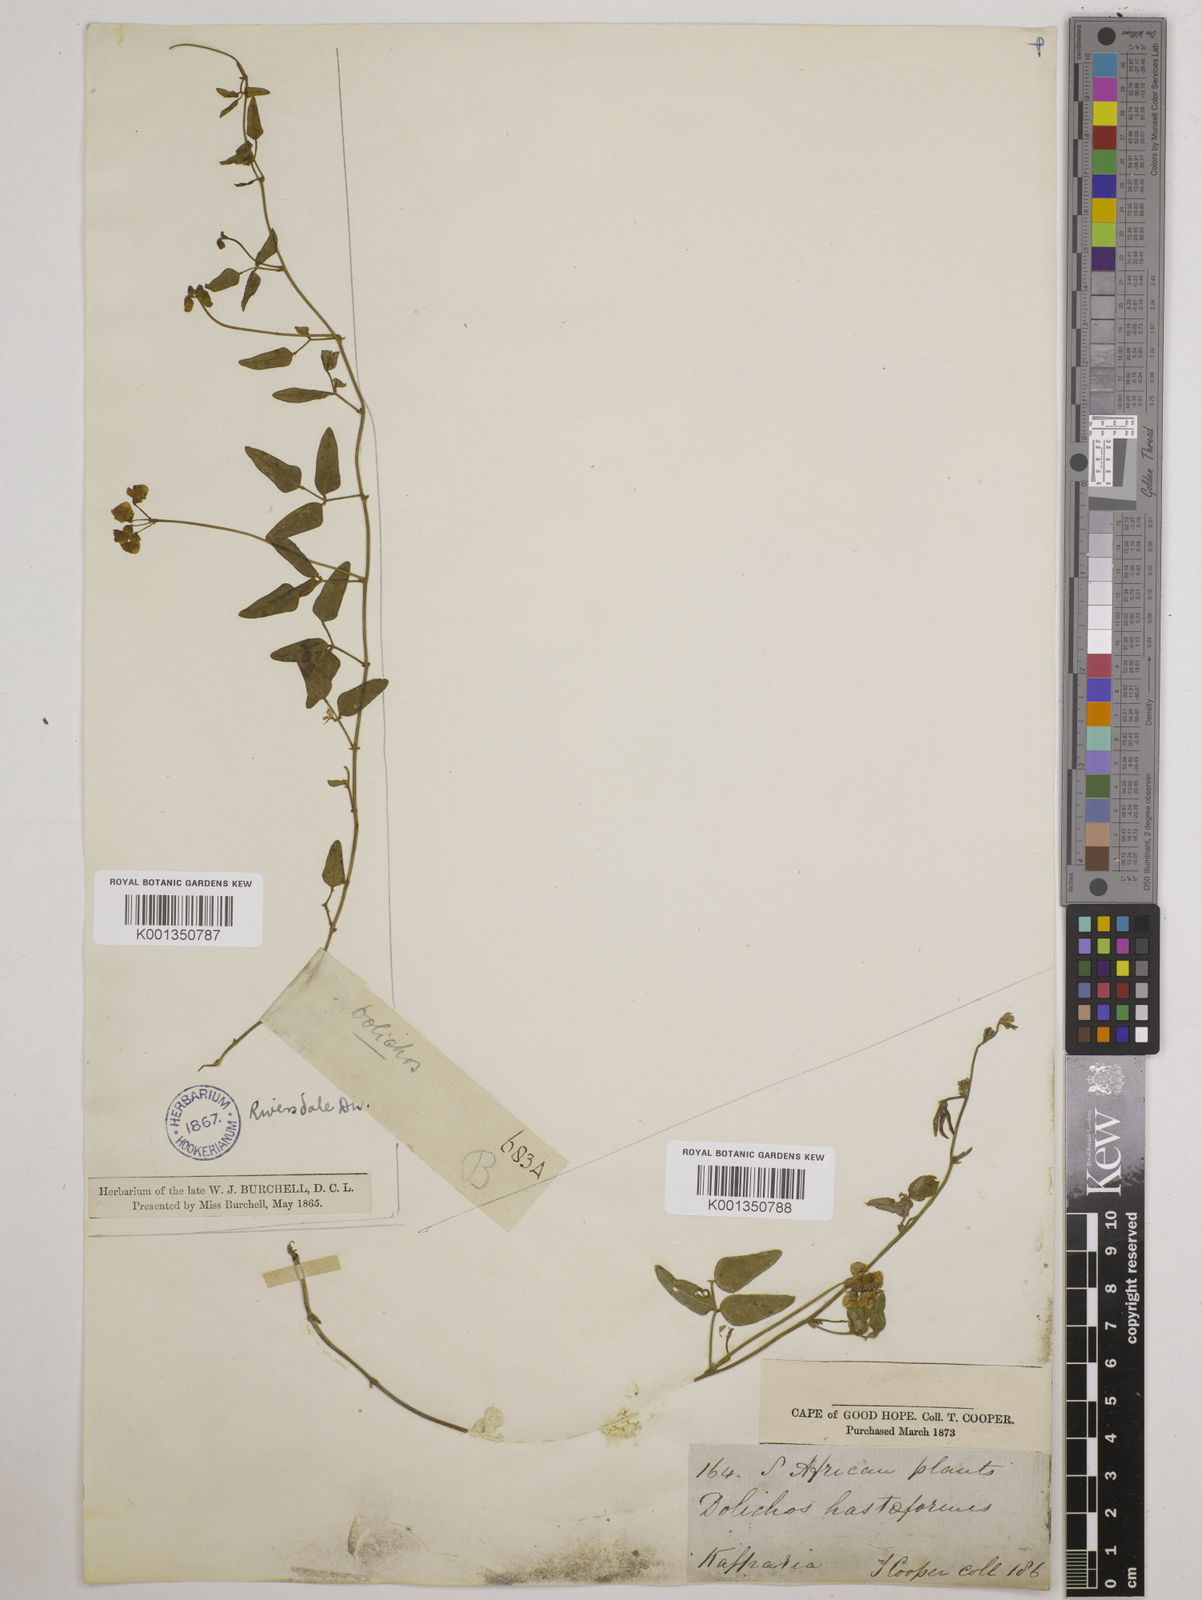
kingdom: Plantae
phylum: Tracheophyta
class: Magnoliopsida
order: Fabales
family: Fabaceae
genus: Dolichos
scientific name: Dolichos
